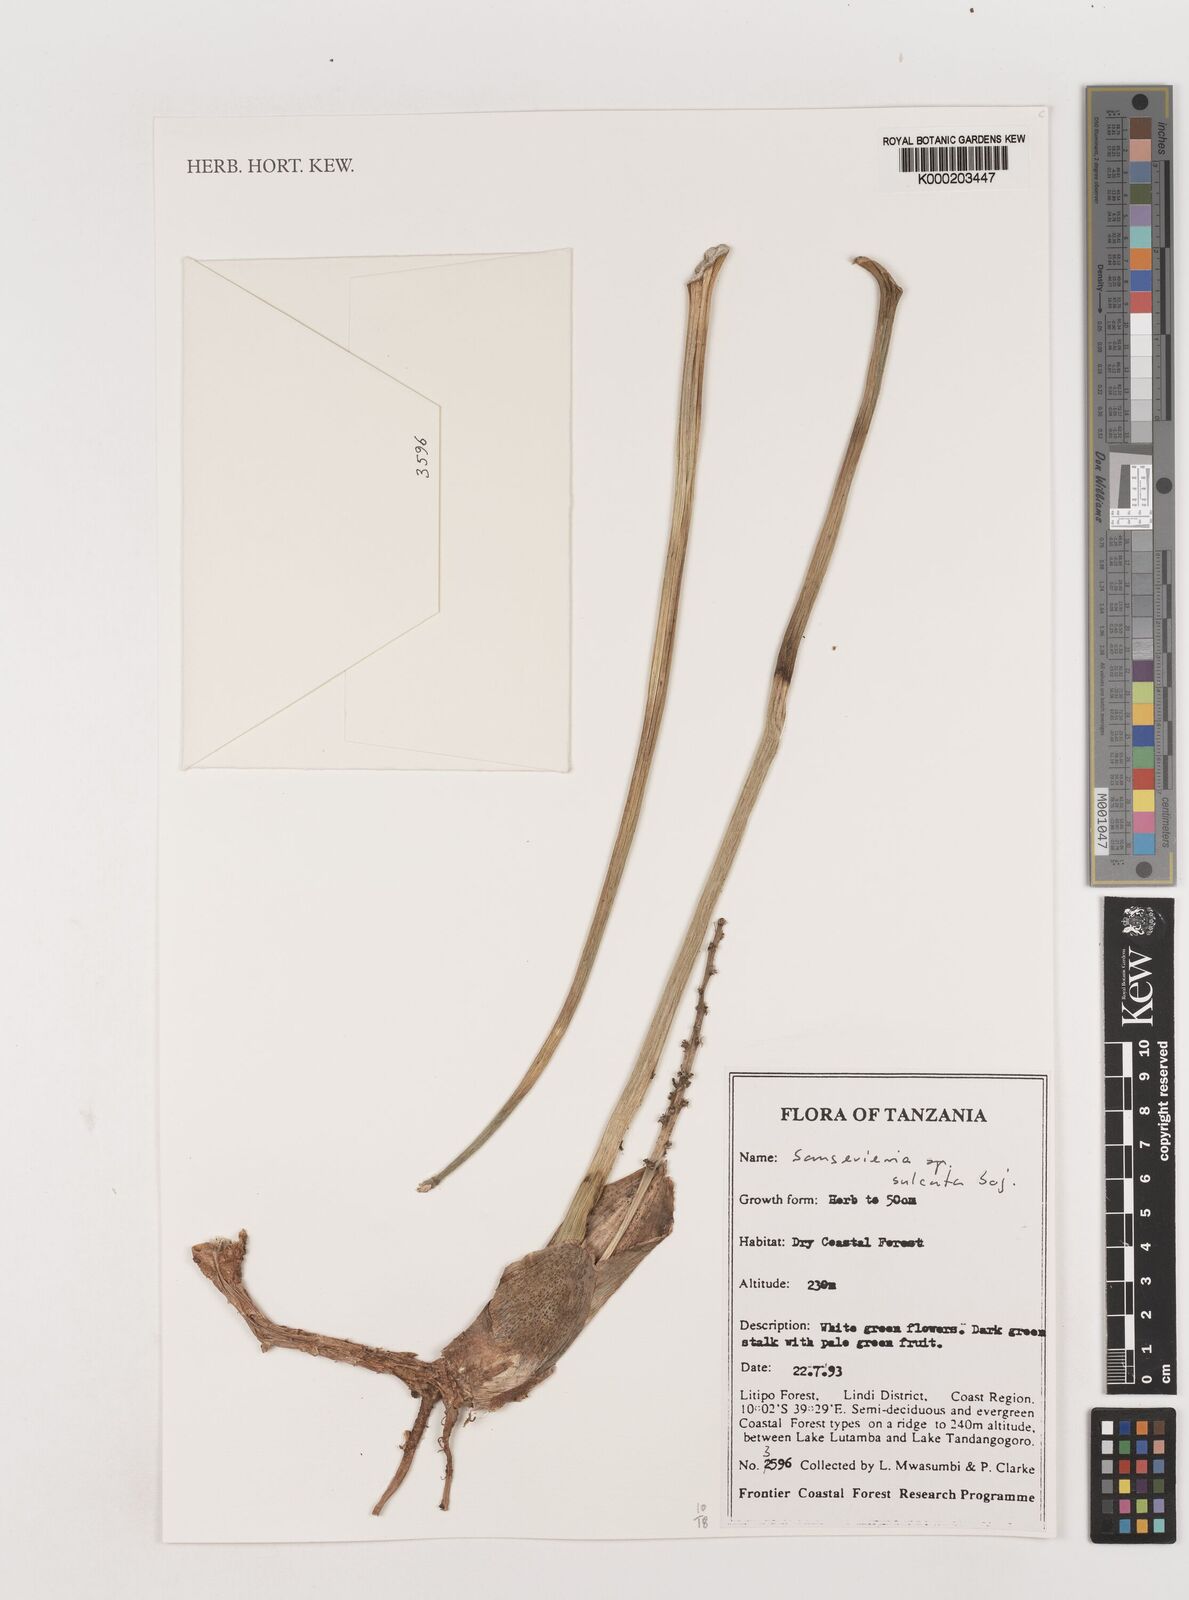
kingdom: Plantae
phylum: Tracheophyta
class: Liliopsida
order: Asparagales
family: Asparagaceae
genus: Dracaena
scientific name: Dracaena canaliculata
